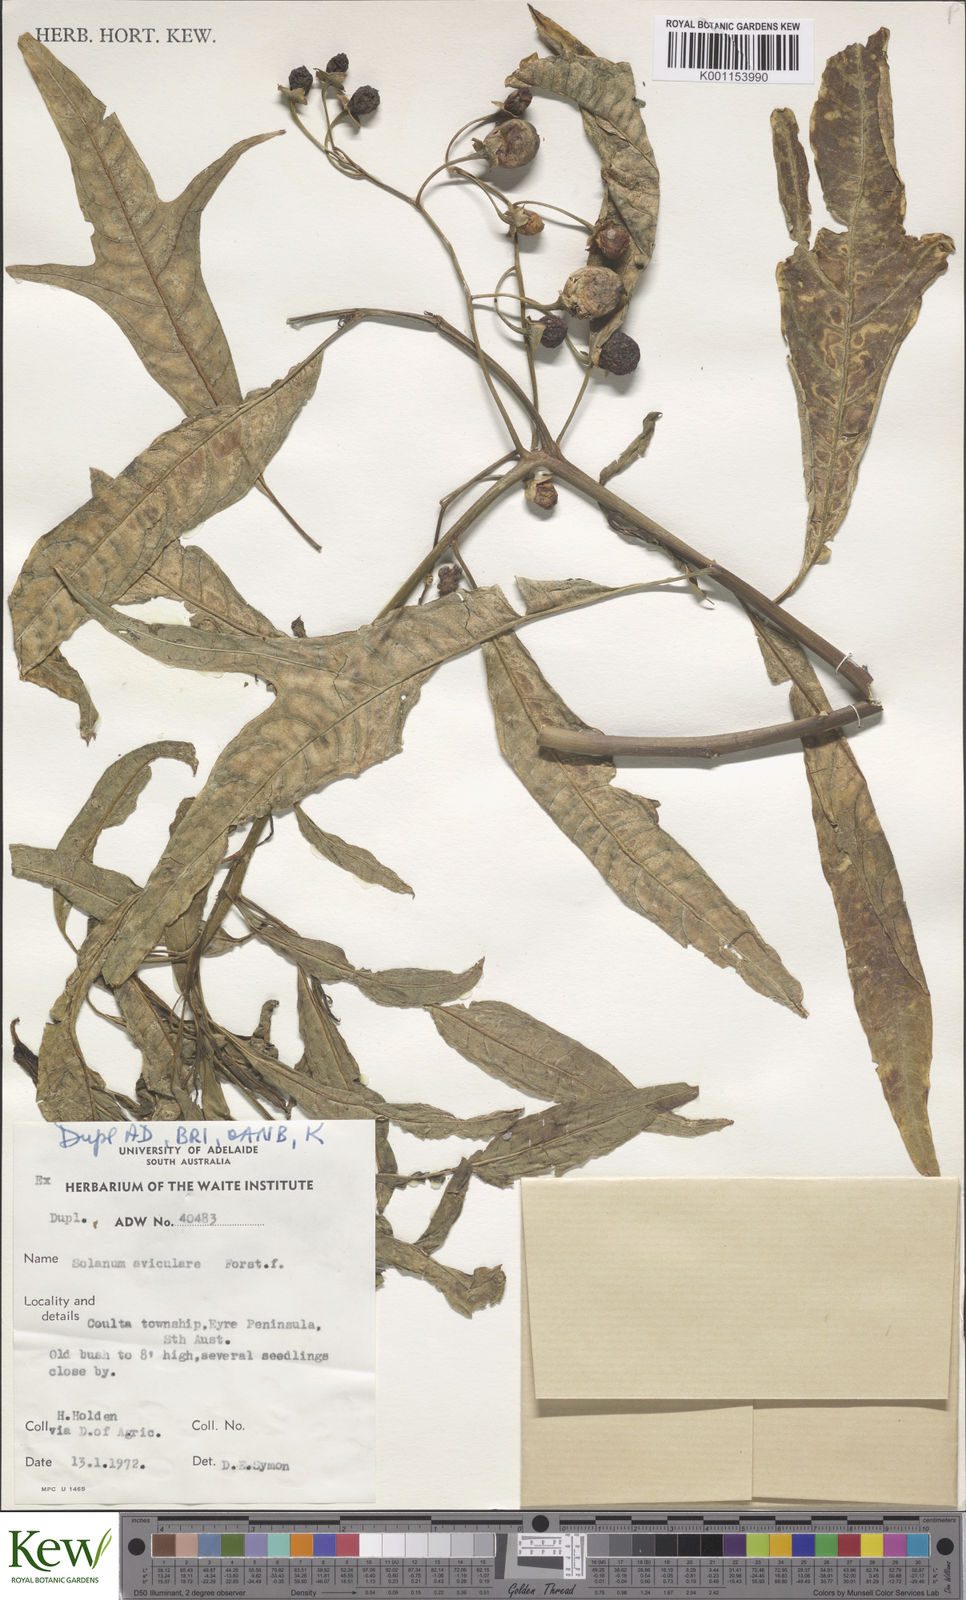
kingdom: Plantae
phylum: Tracheophyta
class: Magnoliopsida
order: Solanales
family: Solanaceae
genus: Solanum
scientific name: Solanum aviculare
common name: New zealand nightshade
